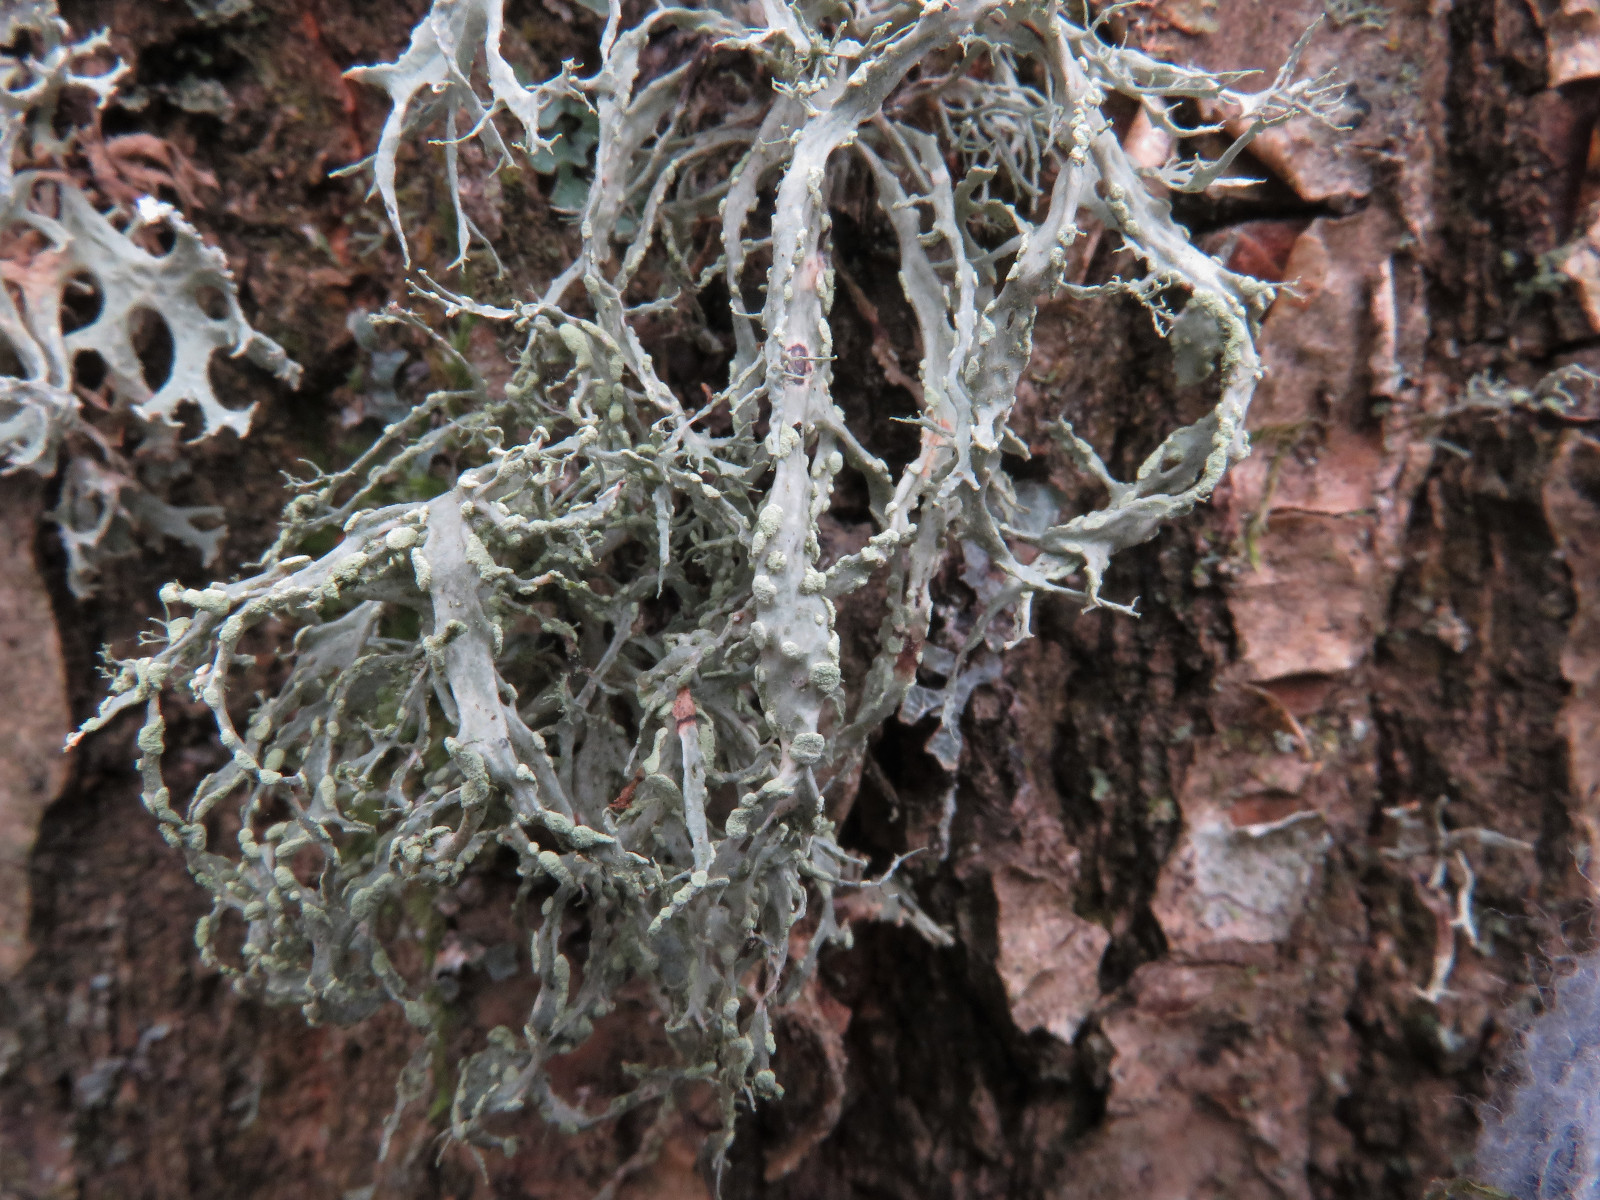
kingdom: Fungi
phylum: Ascomycota
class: Lecanoromycetes
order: Lecanorales
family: Ramalinaceae
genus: Ramalina
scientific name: Ramalina farinacea
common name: melet grenlav
